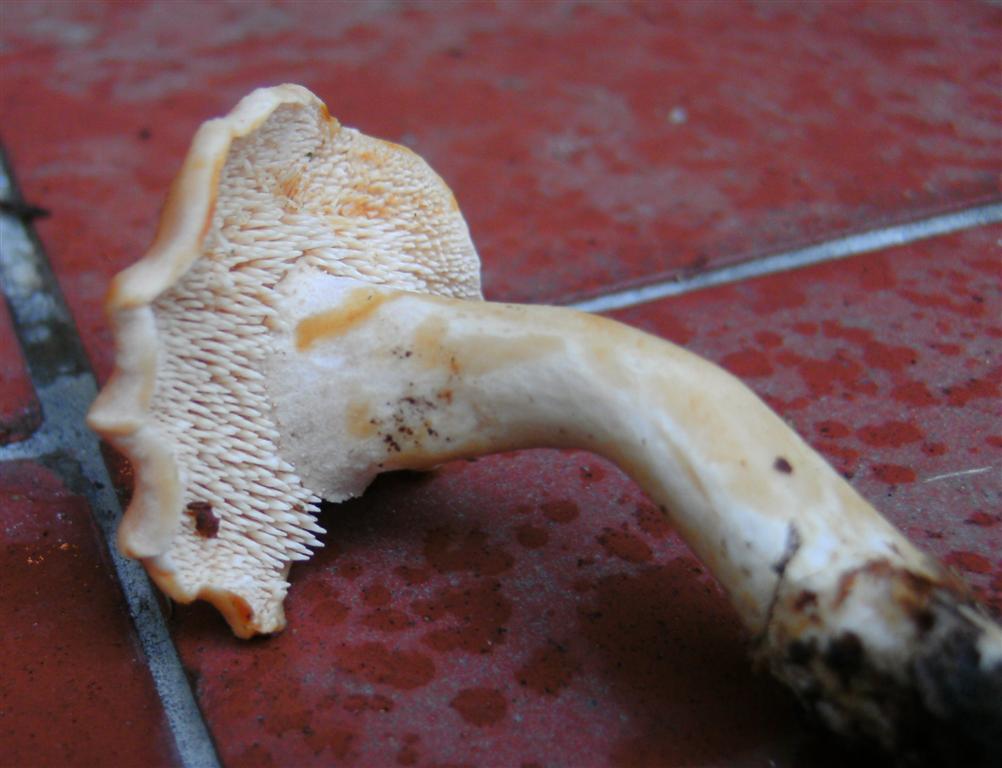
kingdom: Fungi
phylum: Basidiomycota
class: Agaricomycetes
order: Cantharellales
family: Hydnaceae
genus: Hydnum
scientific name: Hydnum rufescens
